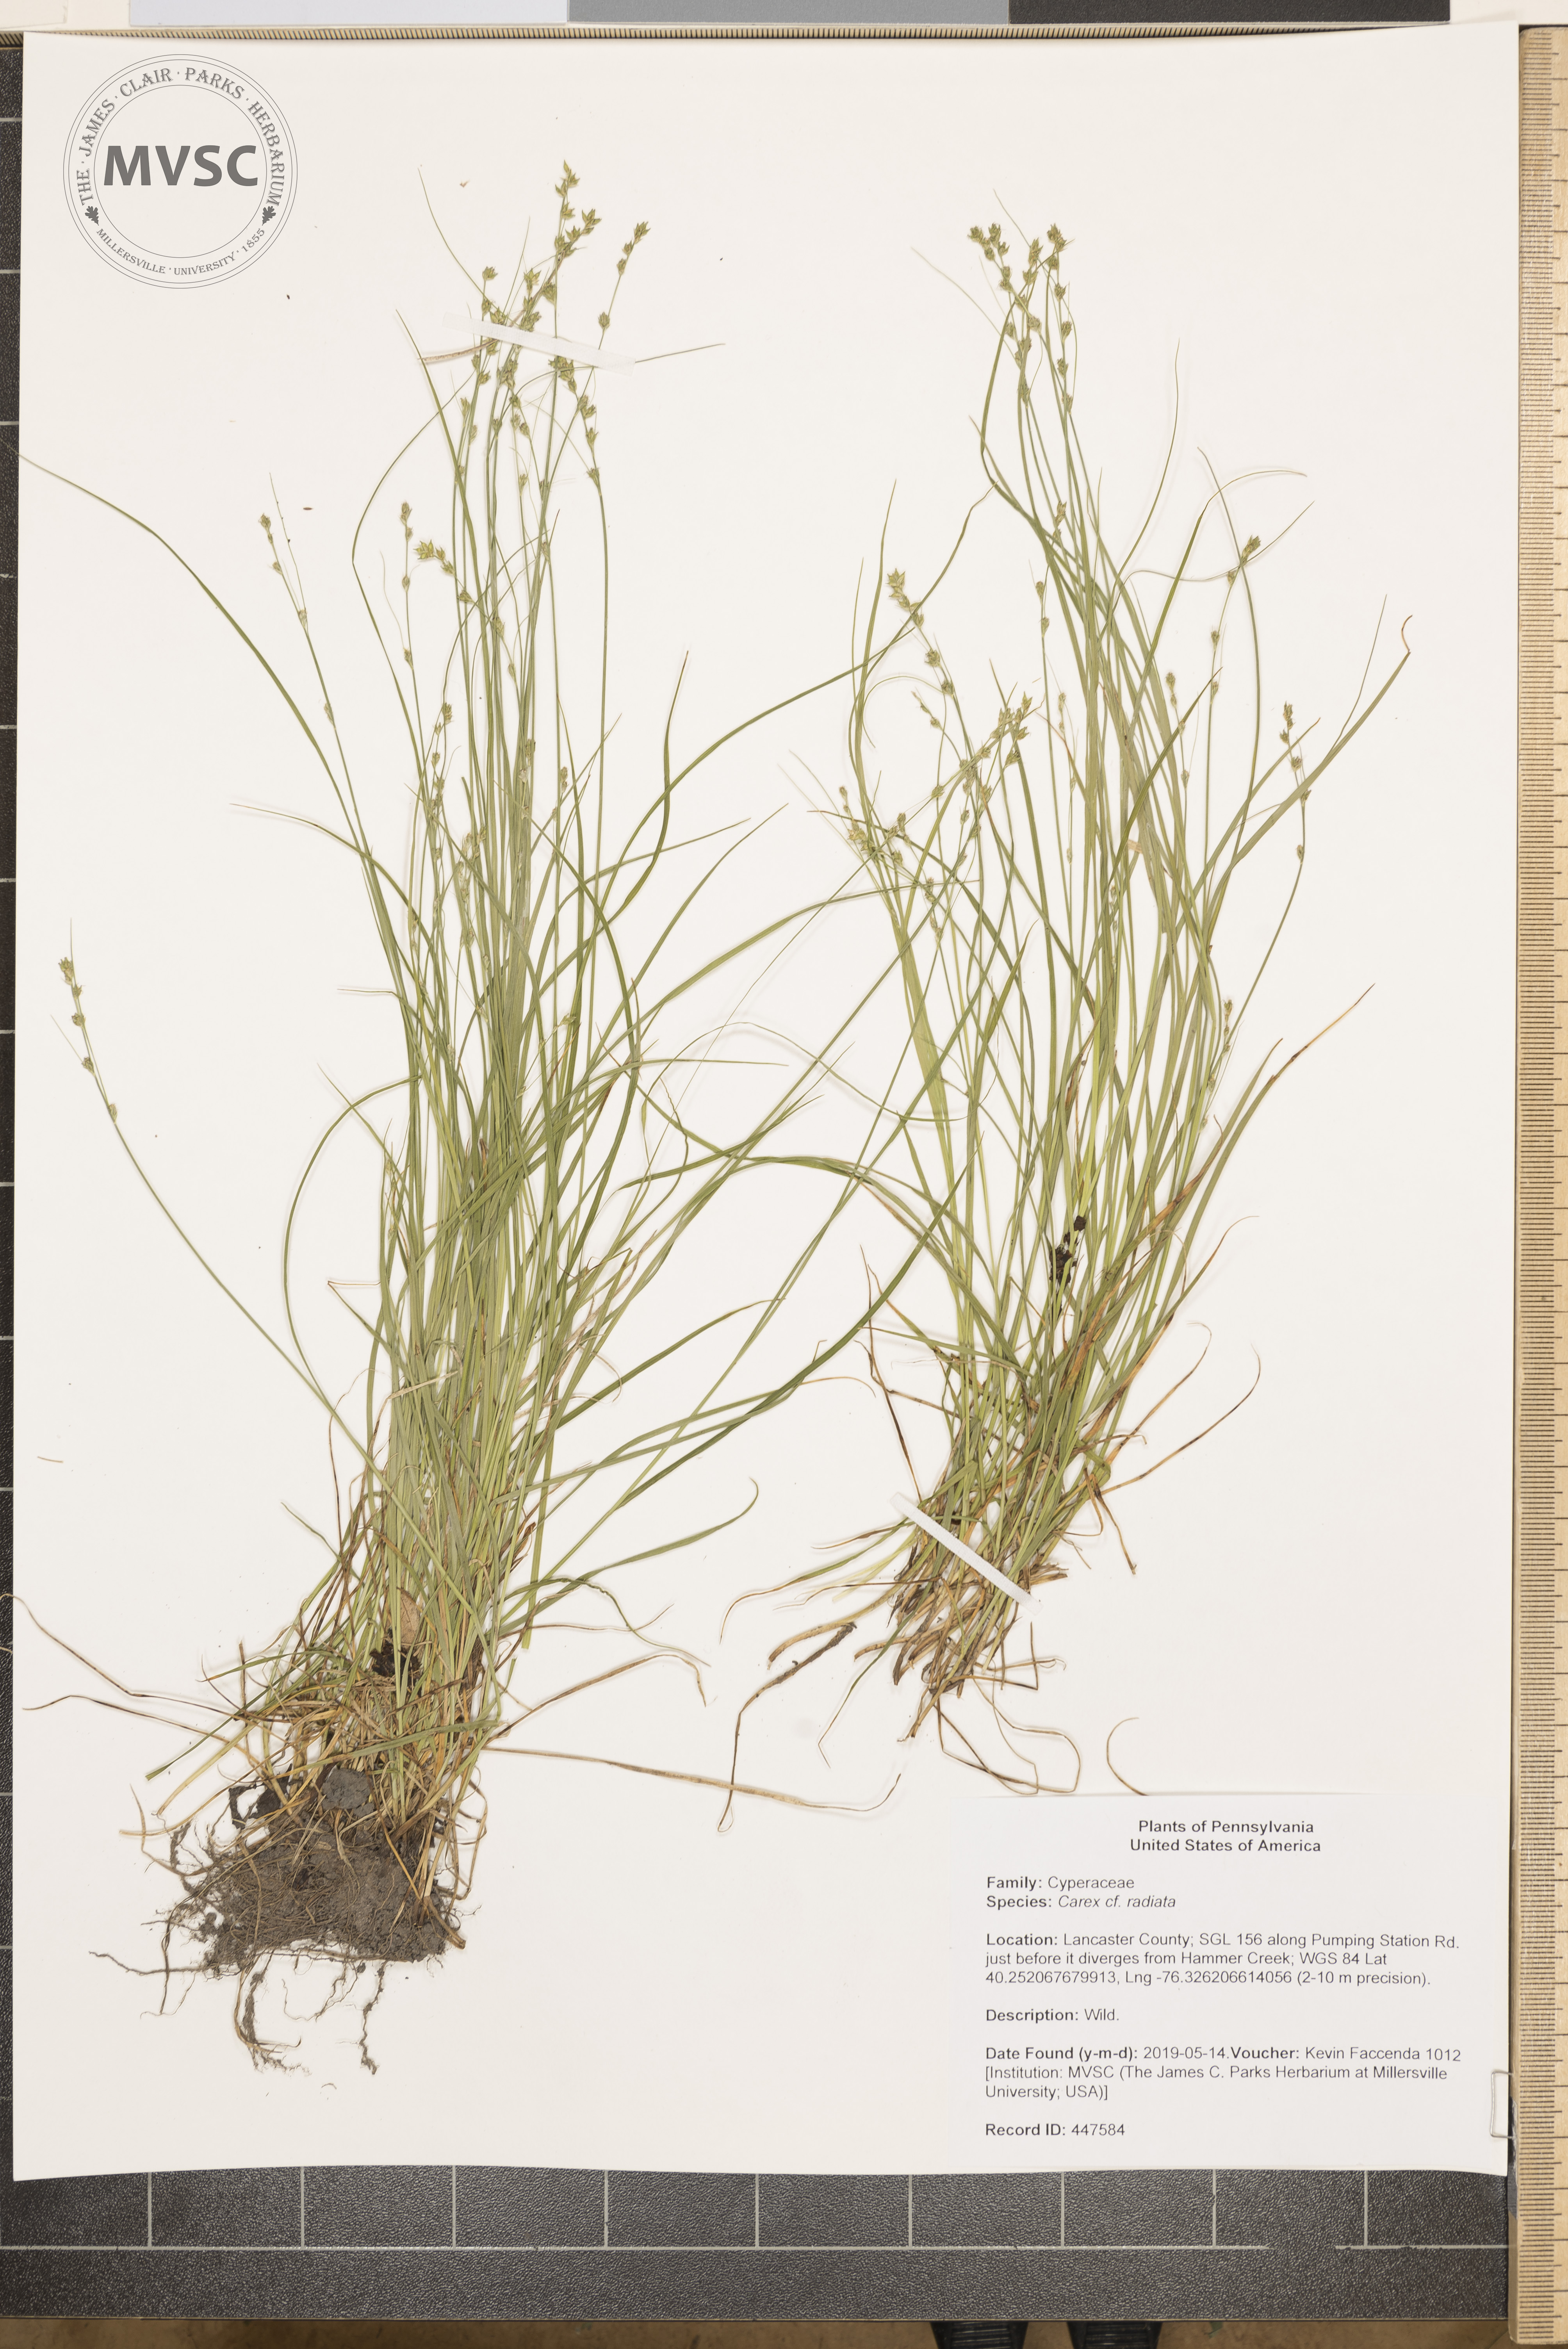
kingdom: Plantae
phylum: Tracheophyta
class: Liliopsida
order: Poales
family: Cyperaceae
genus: Carex
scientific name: Carex radiata
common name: Eastern star sedge
